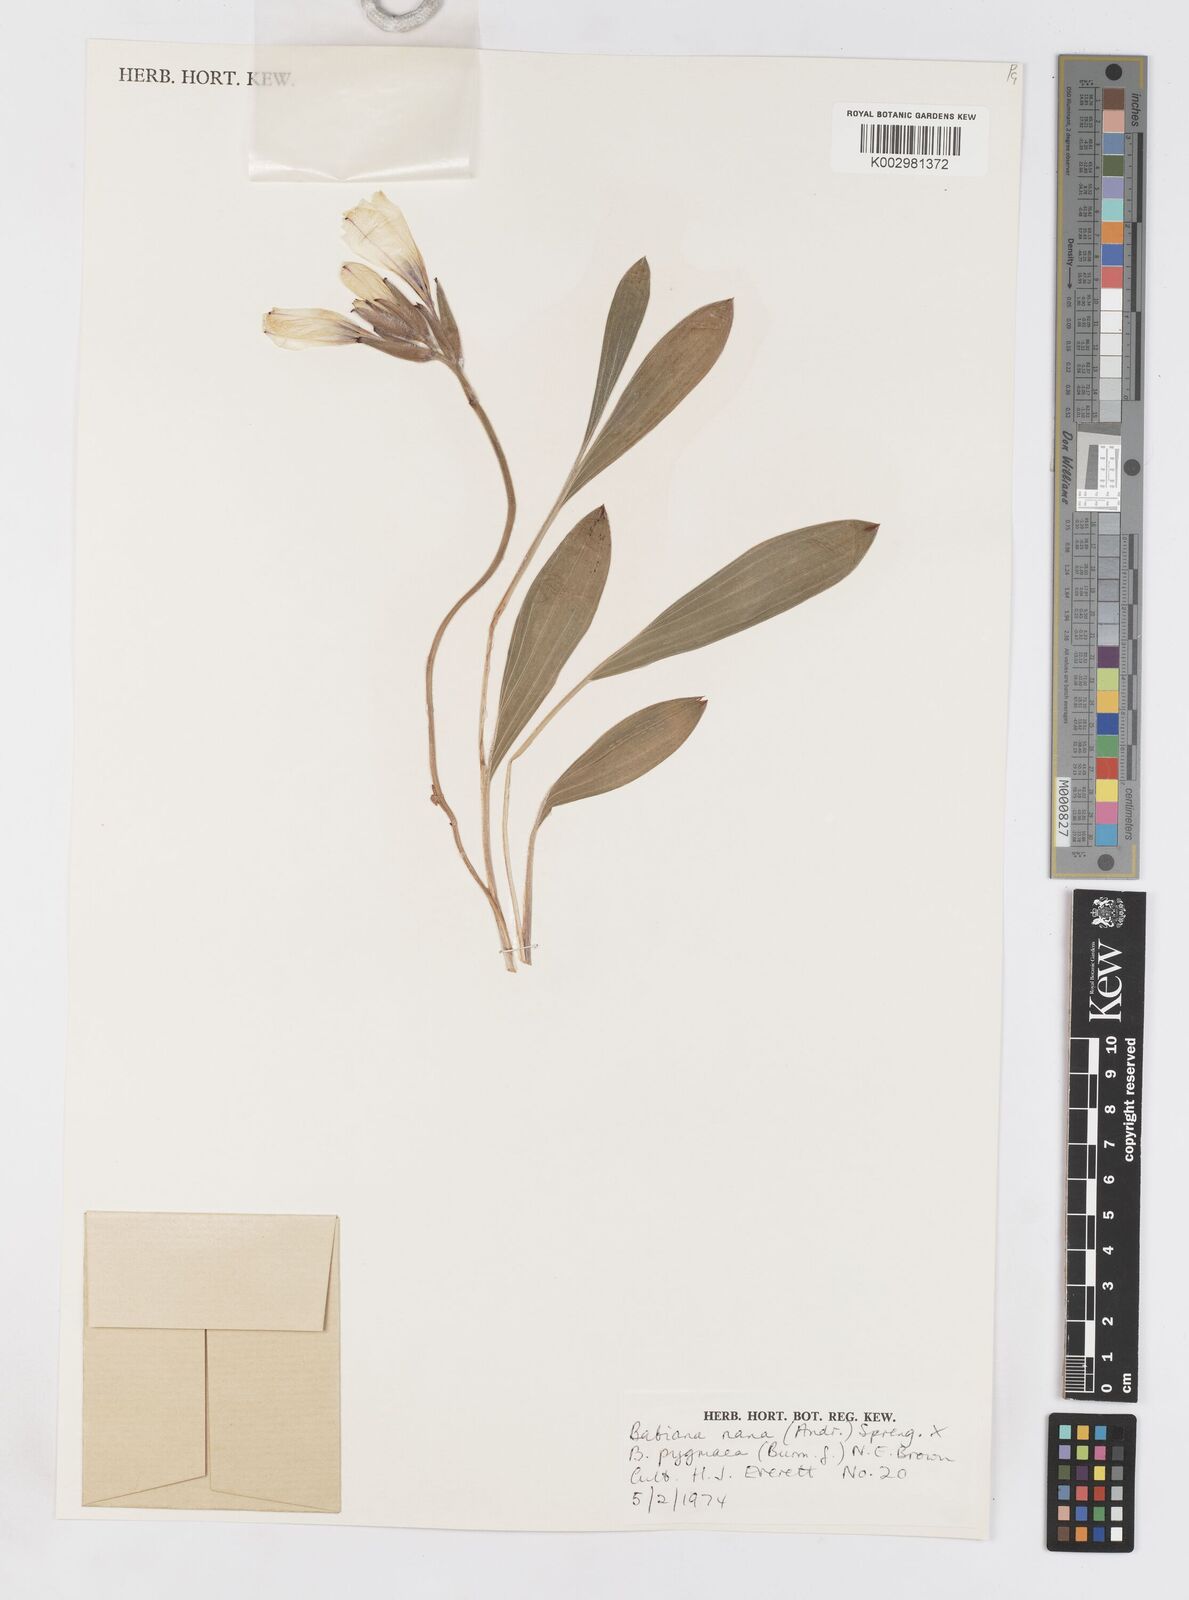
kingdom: Plantae
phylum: Tracheophyta
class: Liliopsida
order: Asparagales
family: Iridaceae
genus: Babiana
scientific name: Babiana nana
